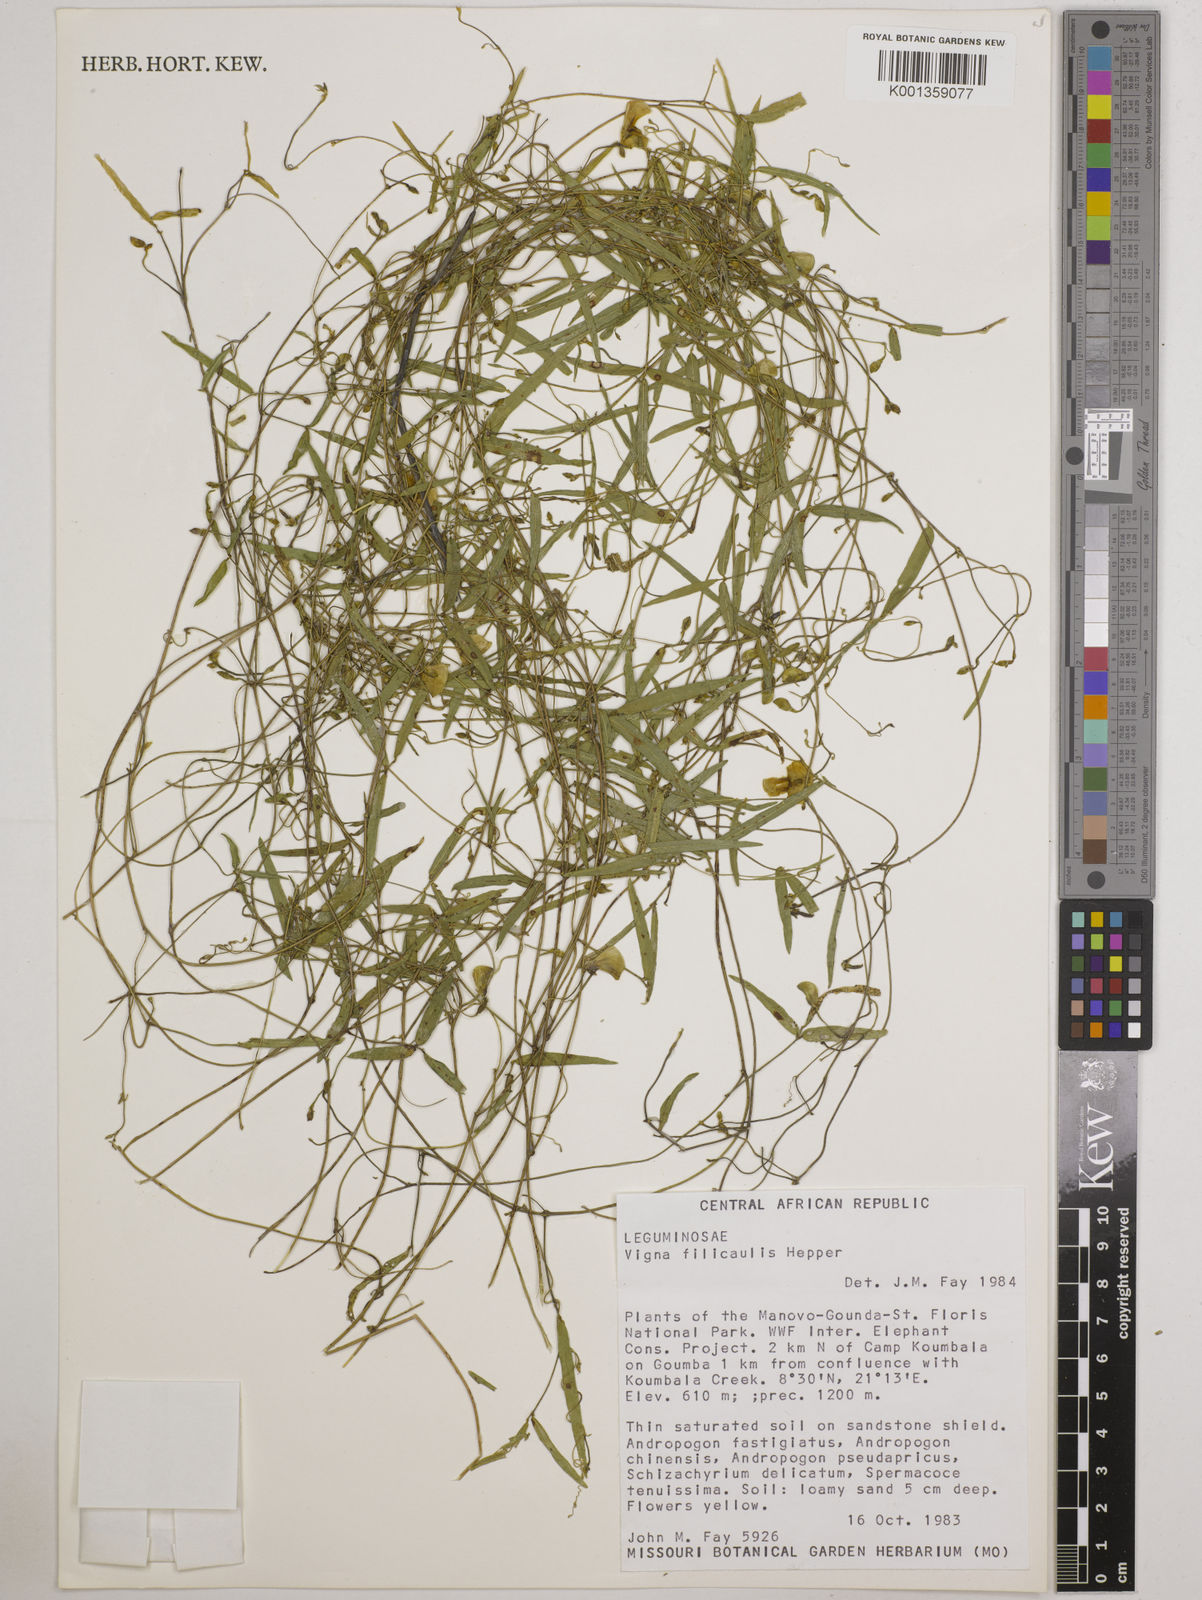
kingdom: Plantae
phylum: Tracheophyta
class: Magnoliopsida
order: Fabales
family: Fabaceae
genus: Vigna
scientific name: Vigna filicaulis
